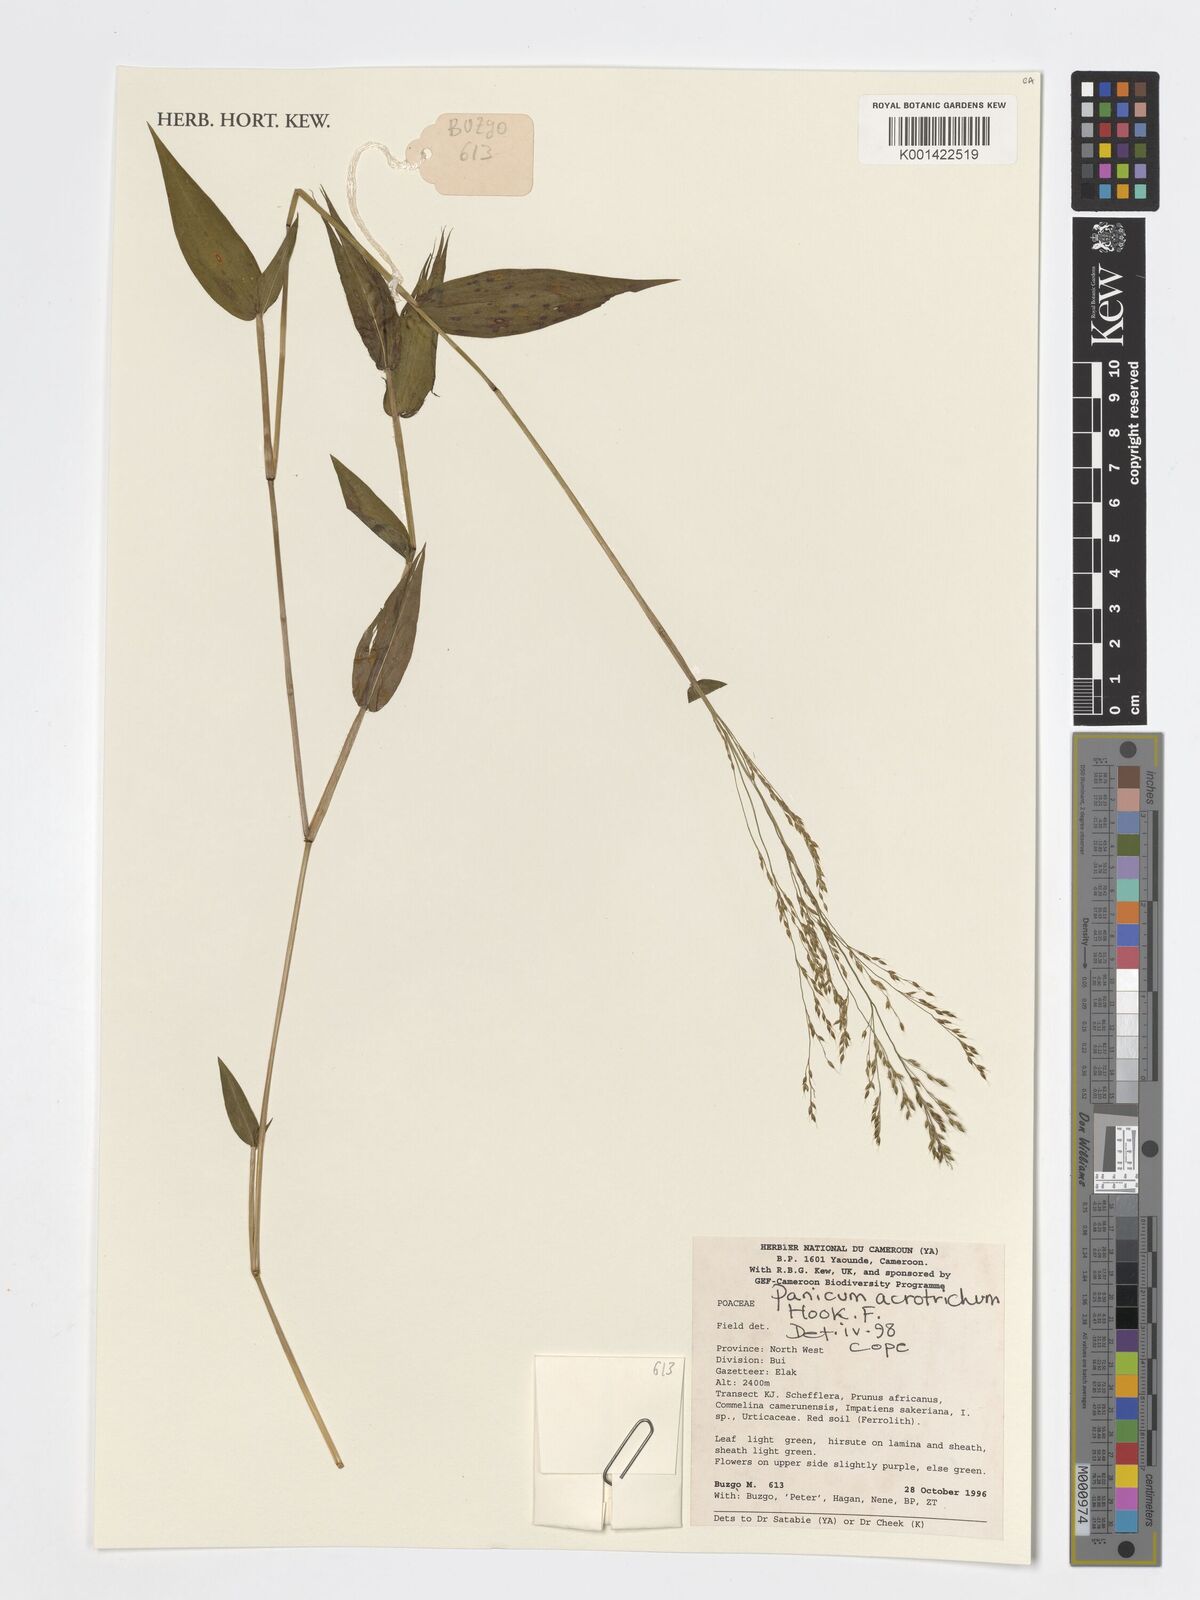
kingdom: Plantae
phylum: Tracheophyta
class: Liliopsida
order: Poales
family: Poaceae
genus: Panicum
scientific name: Panicum acrotrichum
